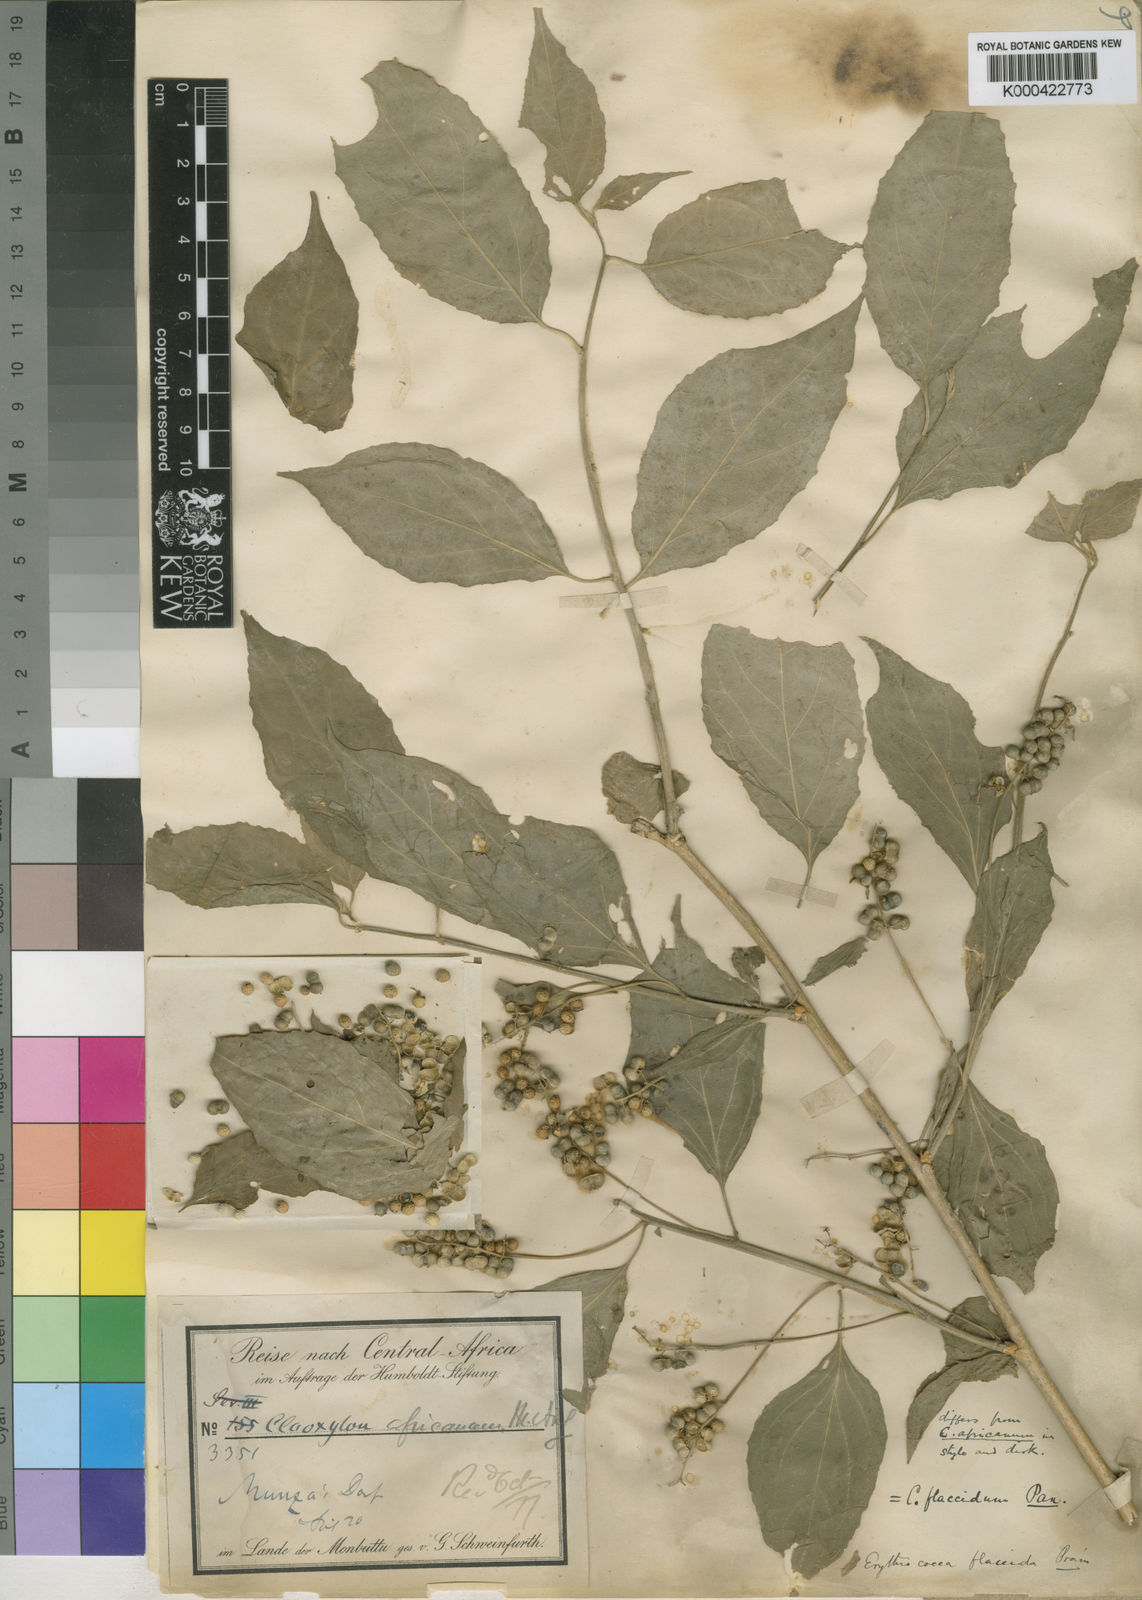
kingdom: Plantae
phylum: Tracheophyta
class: Magnoliopsida
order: Malpighiales
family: Euphorbiaceae
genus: Erythrococca
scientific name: Erythrococca atrovirens
